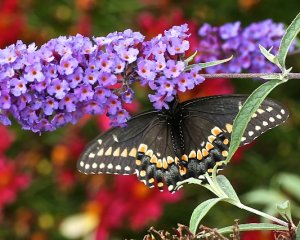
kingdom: Animalia
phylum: Arthropoda
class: Insecta
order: Lepidoptera
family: Papilionidae
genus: Papilio
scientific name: Papilio polyxenes
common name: Black Swallowtail
